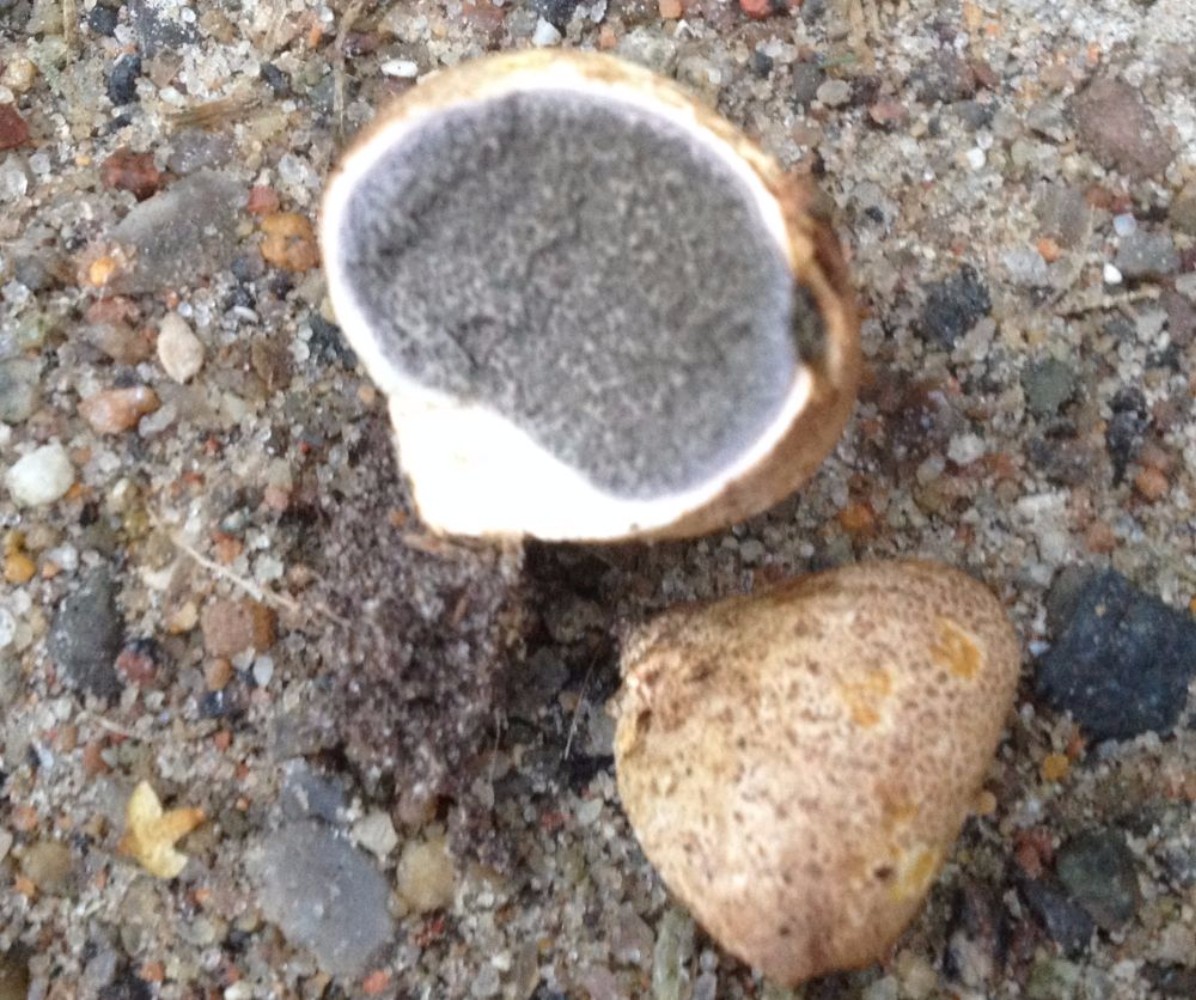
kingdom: Fungi
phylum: Basidiomycota
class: Agaricomycetes
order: Boletales
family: Sclerodermataceae
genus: Scleroderma
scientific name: Scleroderma bovista
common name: bovist-bruskbold
